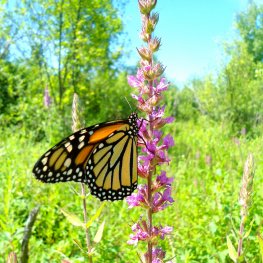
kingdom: Animalia
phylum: Arthropoda
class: Insecta
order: Lepidoptera
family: Nymphalidae
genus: Danaus
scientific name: Danaus plexippus
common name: Monarch
